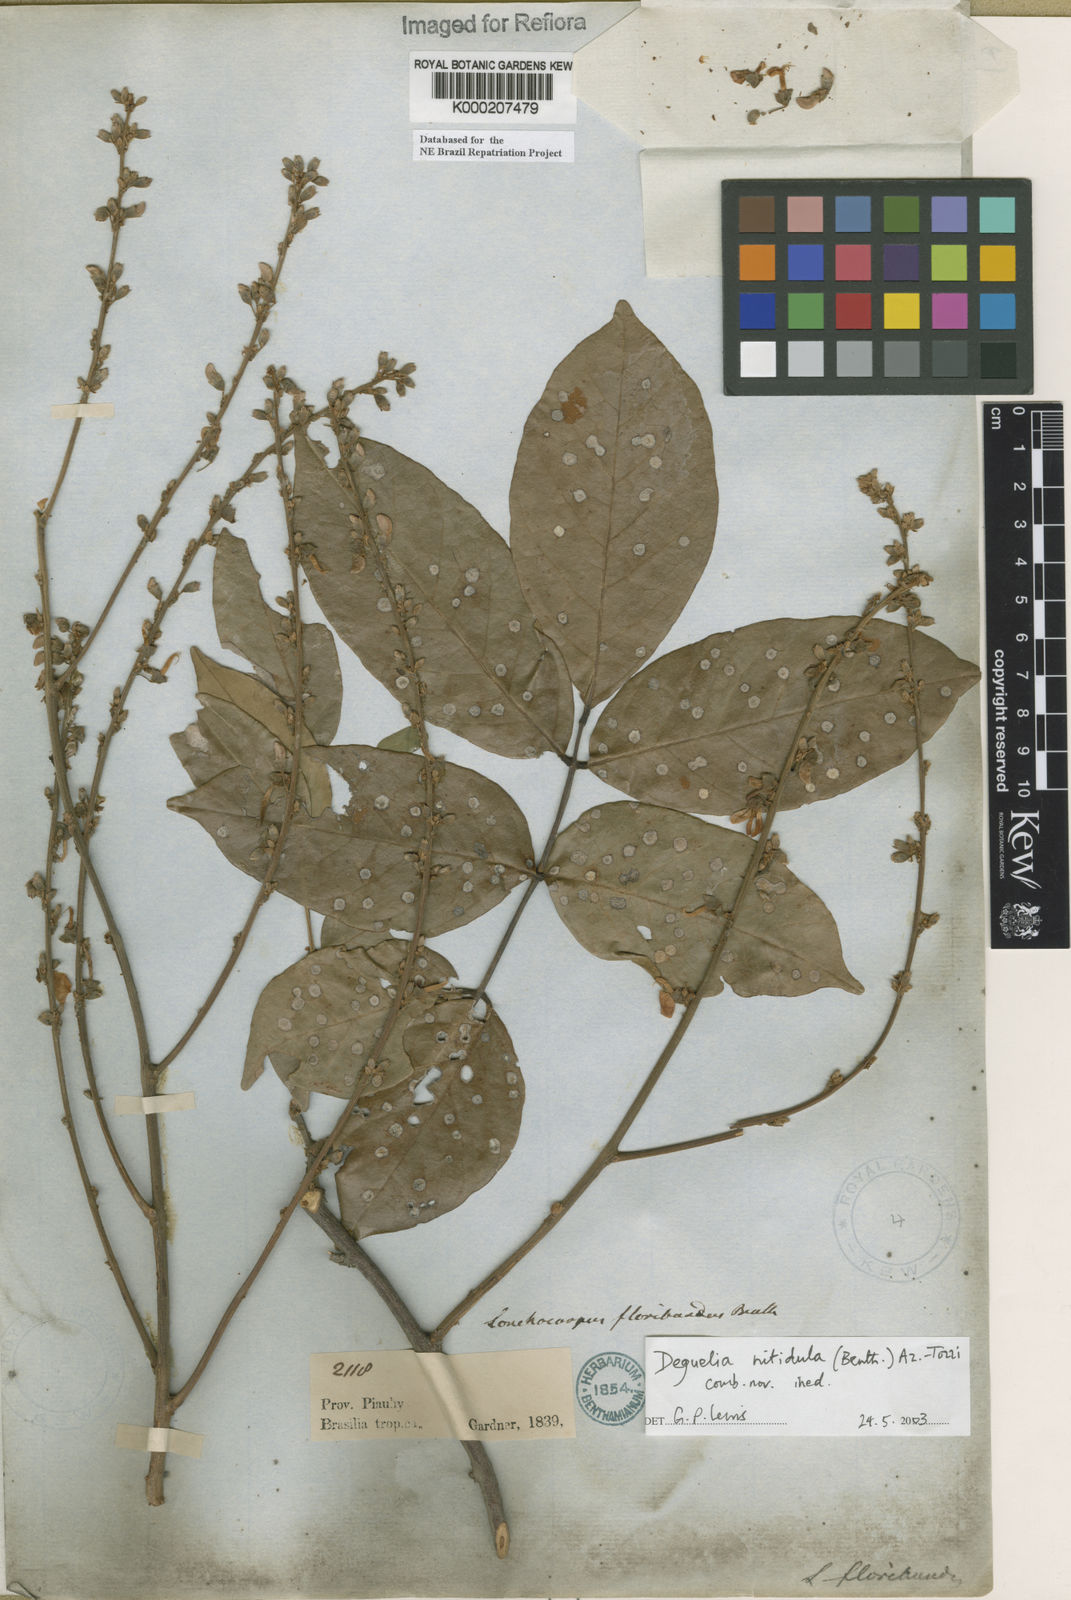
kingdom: Plantae
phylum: Tracheophyta
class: Magnoliopsida
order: Fabales
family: Fabaceae
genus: Deguelia
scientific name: Deguelia
